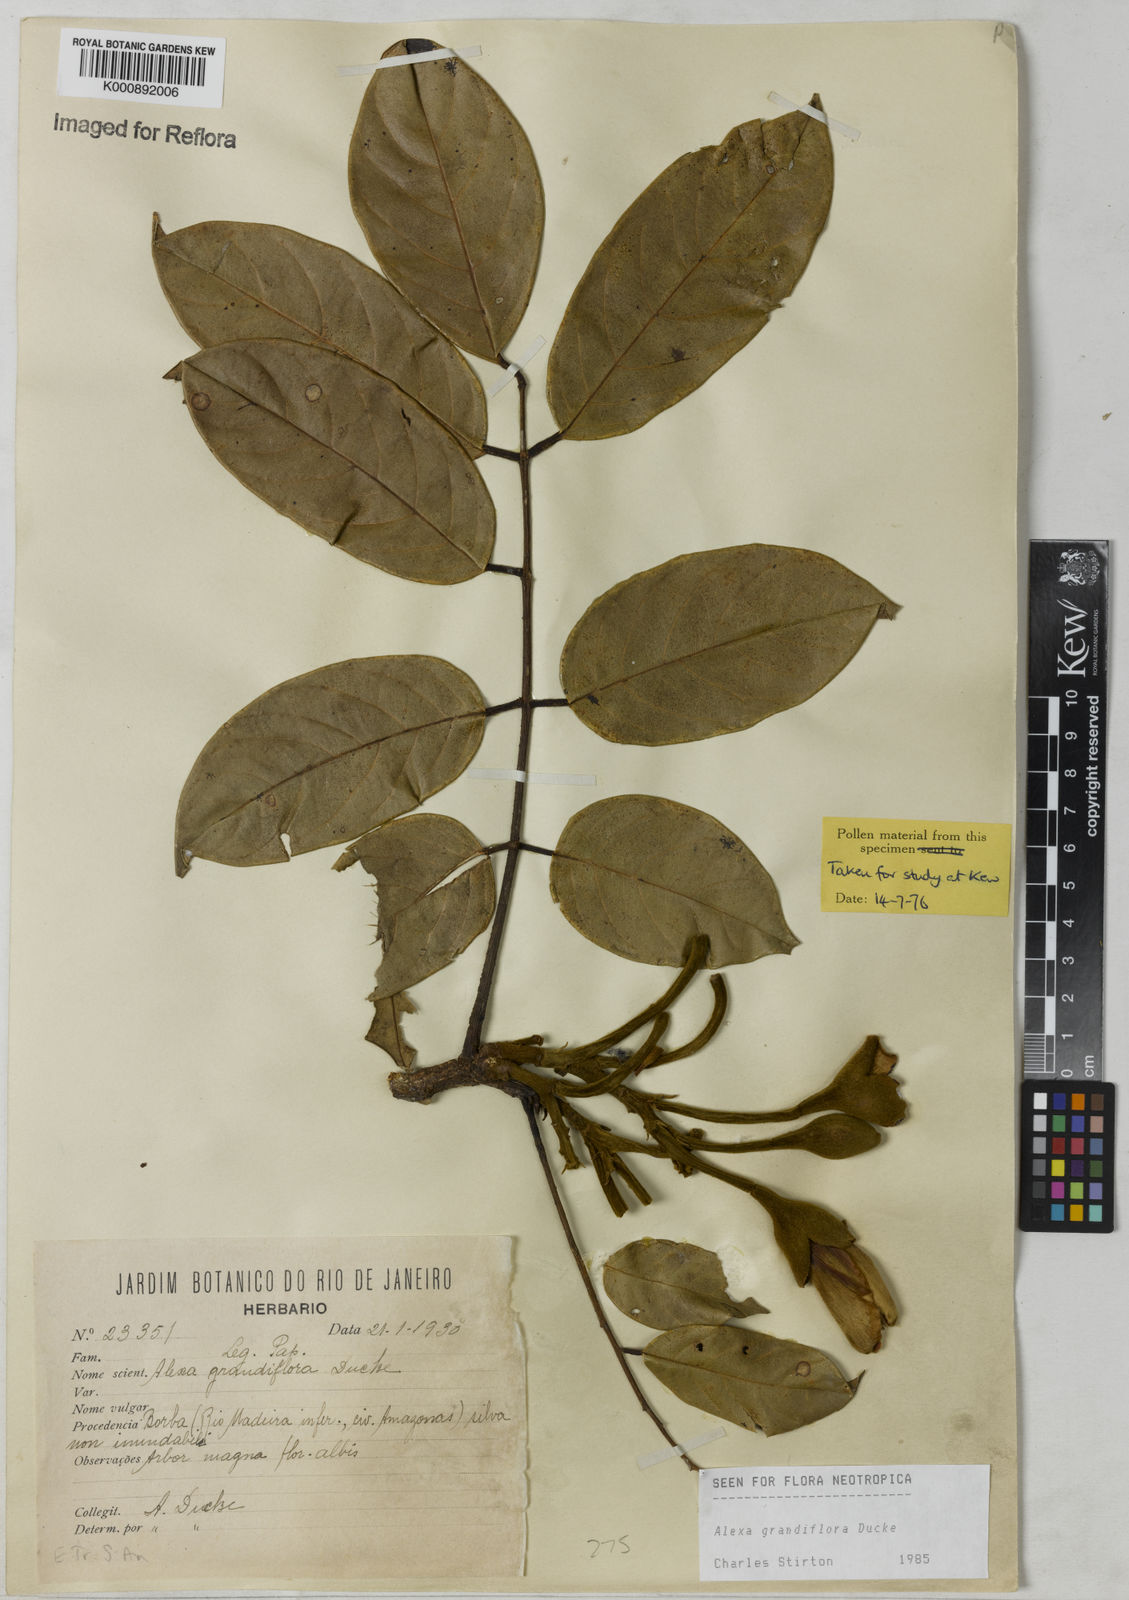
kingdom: Plantae
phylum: Tracheophyta
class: Magnoliopsida
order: Fabales
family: Fabaceae
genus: Alexa
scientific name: Alexa grandiflora
